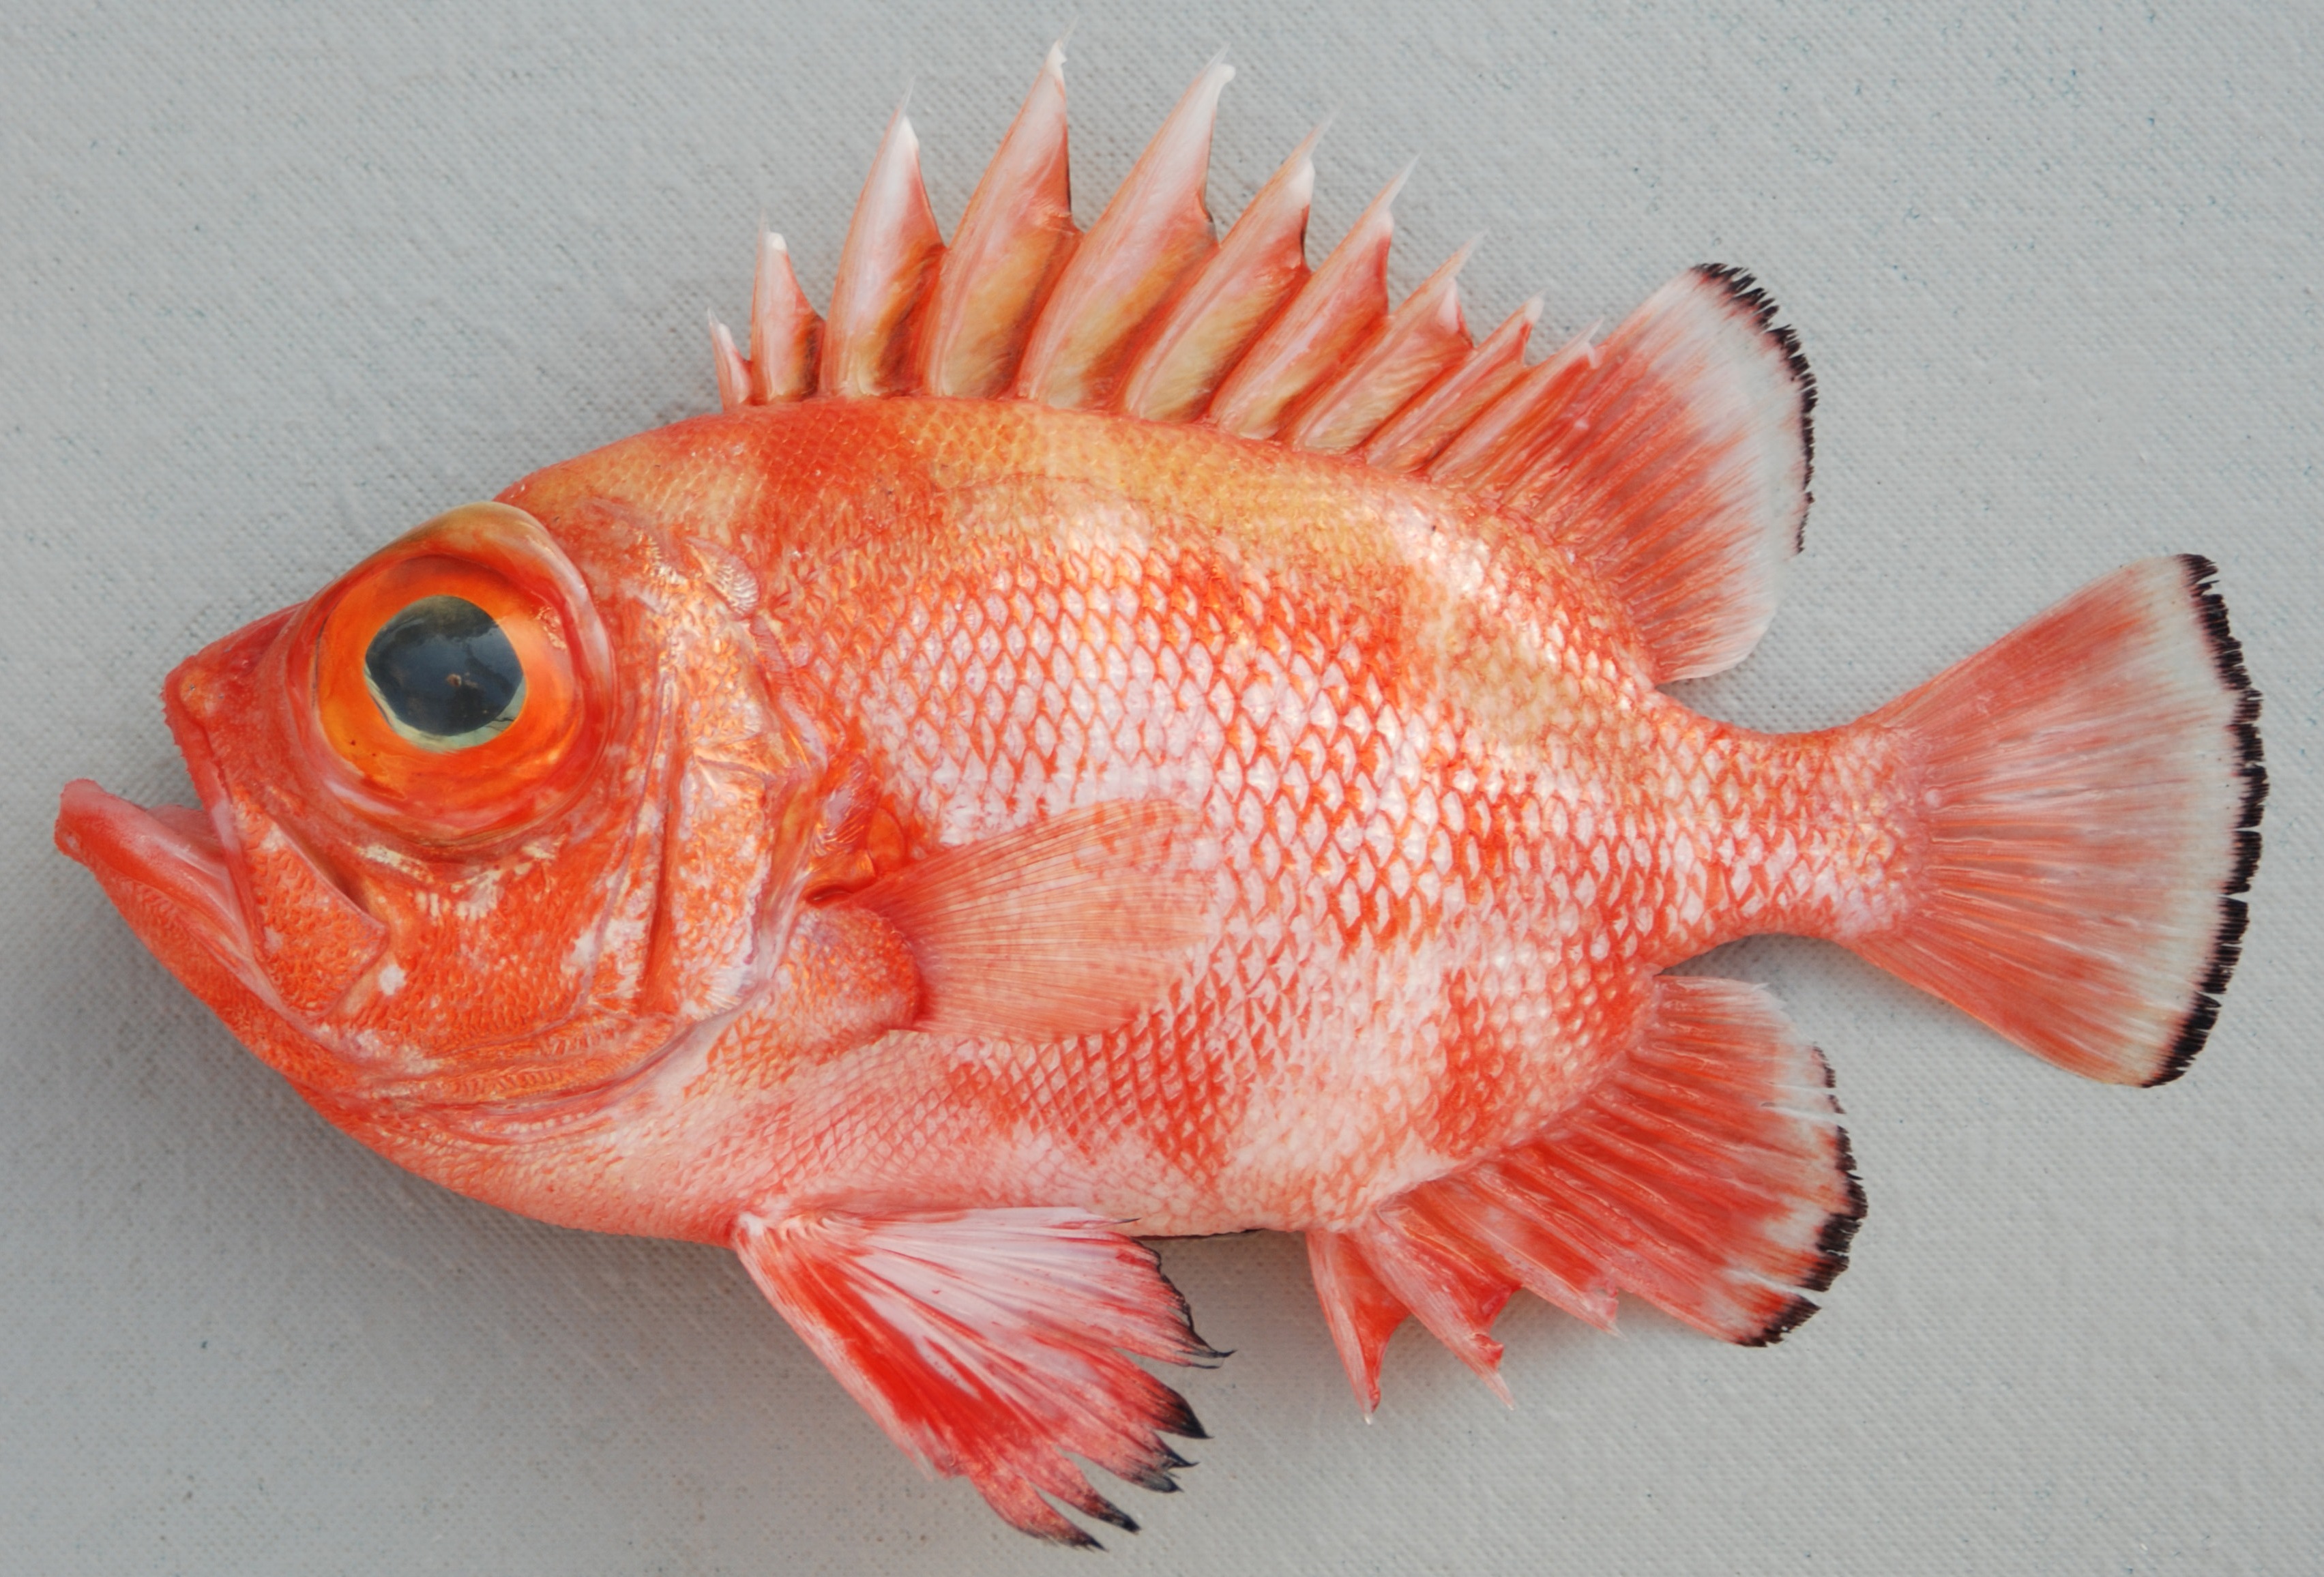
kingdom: Animalia
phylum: Chordata
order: Perciformes
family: Priacanthidae
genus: Pristigenys
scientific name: Pristigenys niphonia
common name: Japanese bigeye
